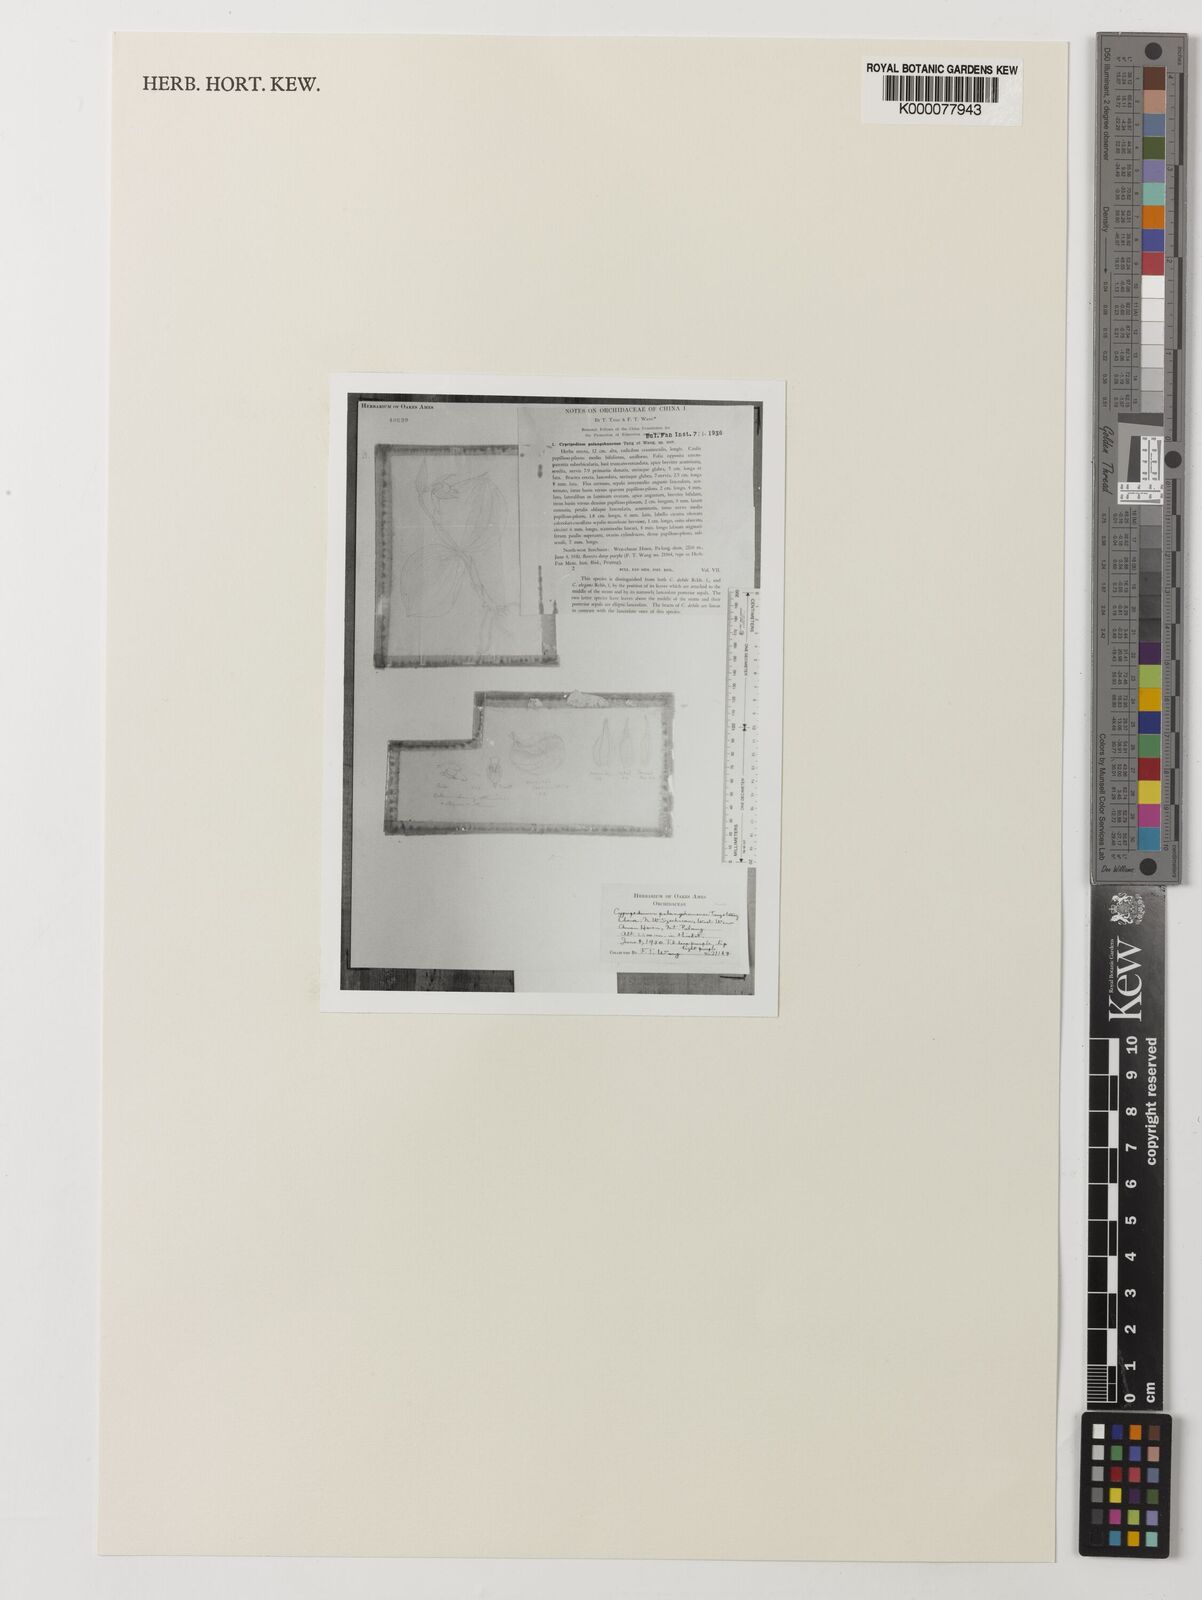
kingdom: Plantae
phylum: Tracheophyta
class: Liliopsida
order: Asparagales
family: Orchidaceae
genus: Cypripedium
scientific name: Cypripedium palangshanense
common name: Palangshan cypripedium
